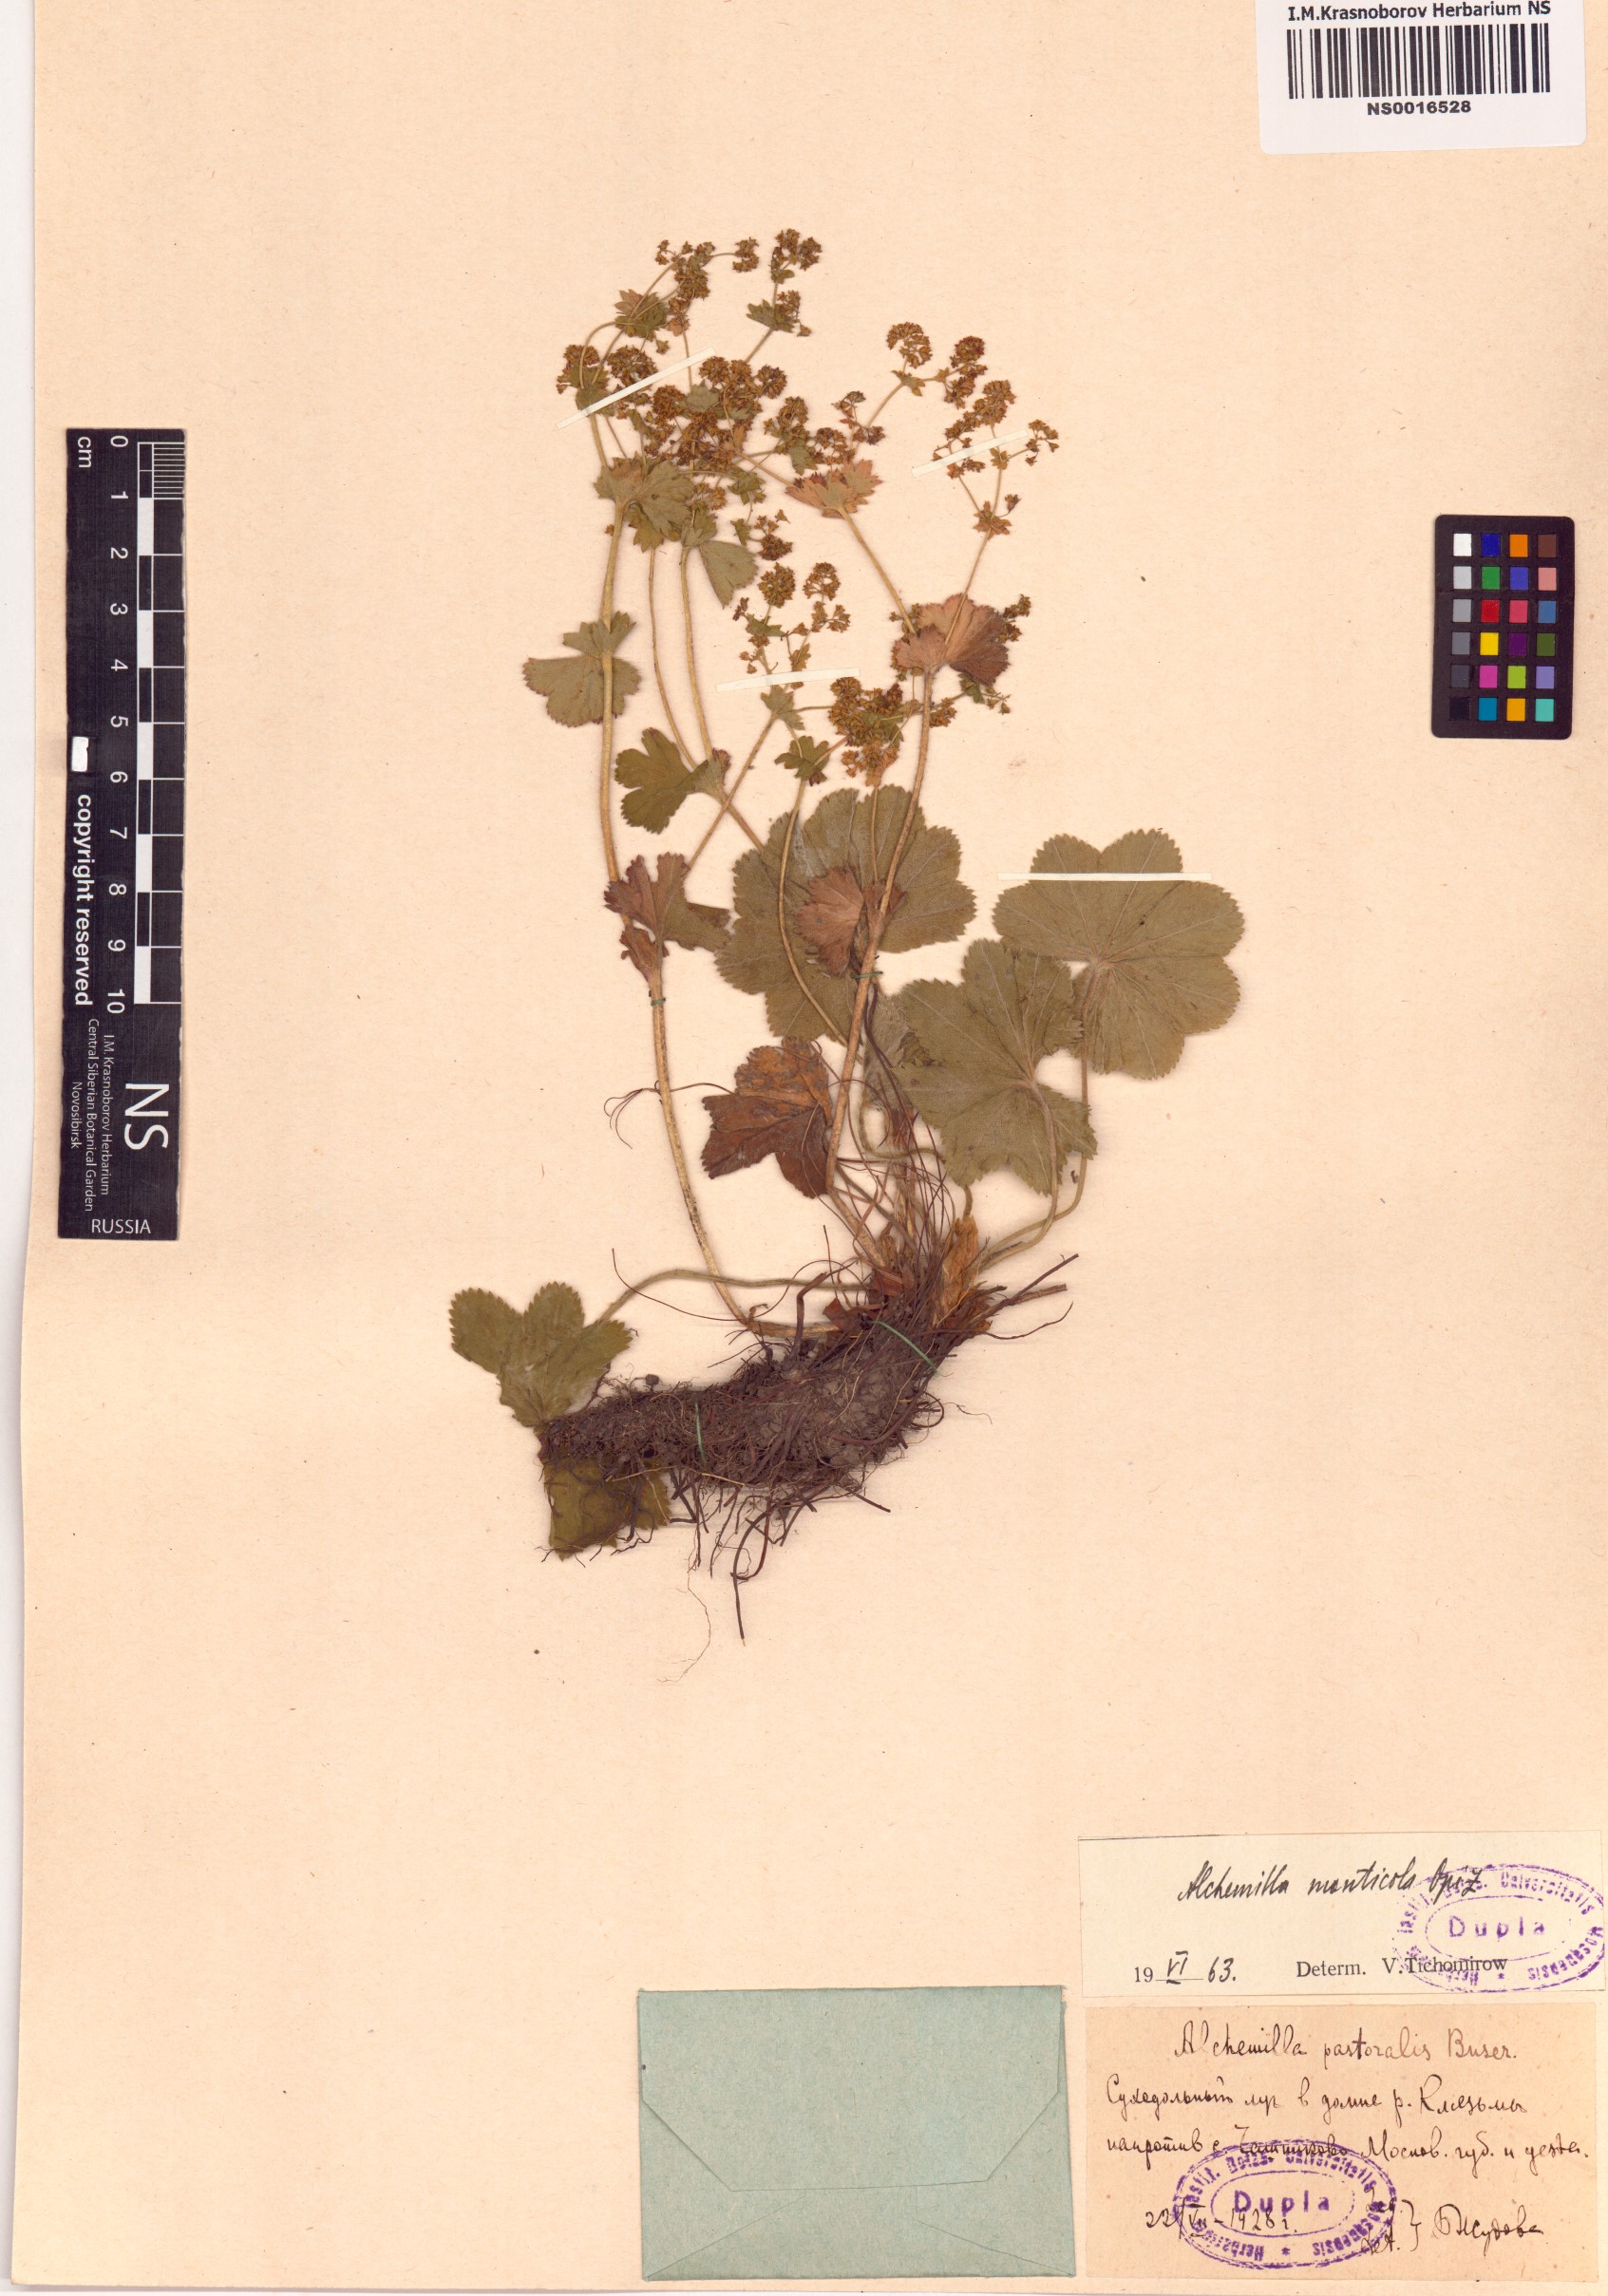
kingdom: Plantae
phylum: Tracheophyta
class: Magnoliopsida
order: Rosales
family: Rosaceae
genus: Alchemilla
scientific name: Alchemilla monticola
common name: Hairy lady's mantle
